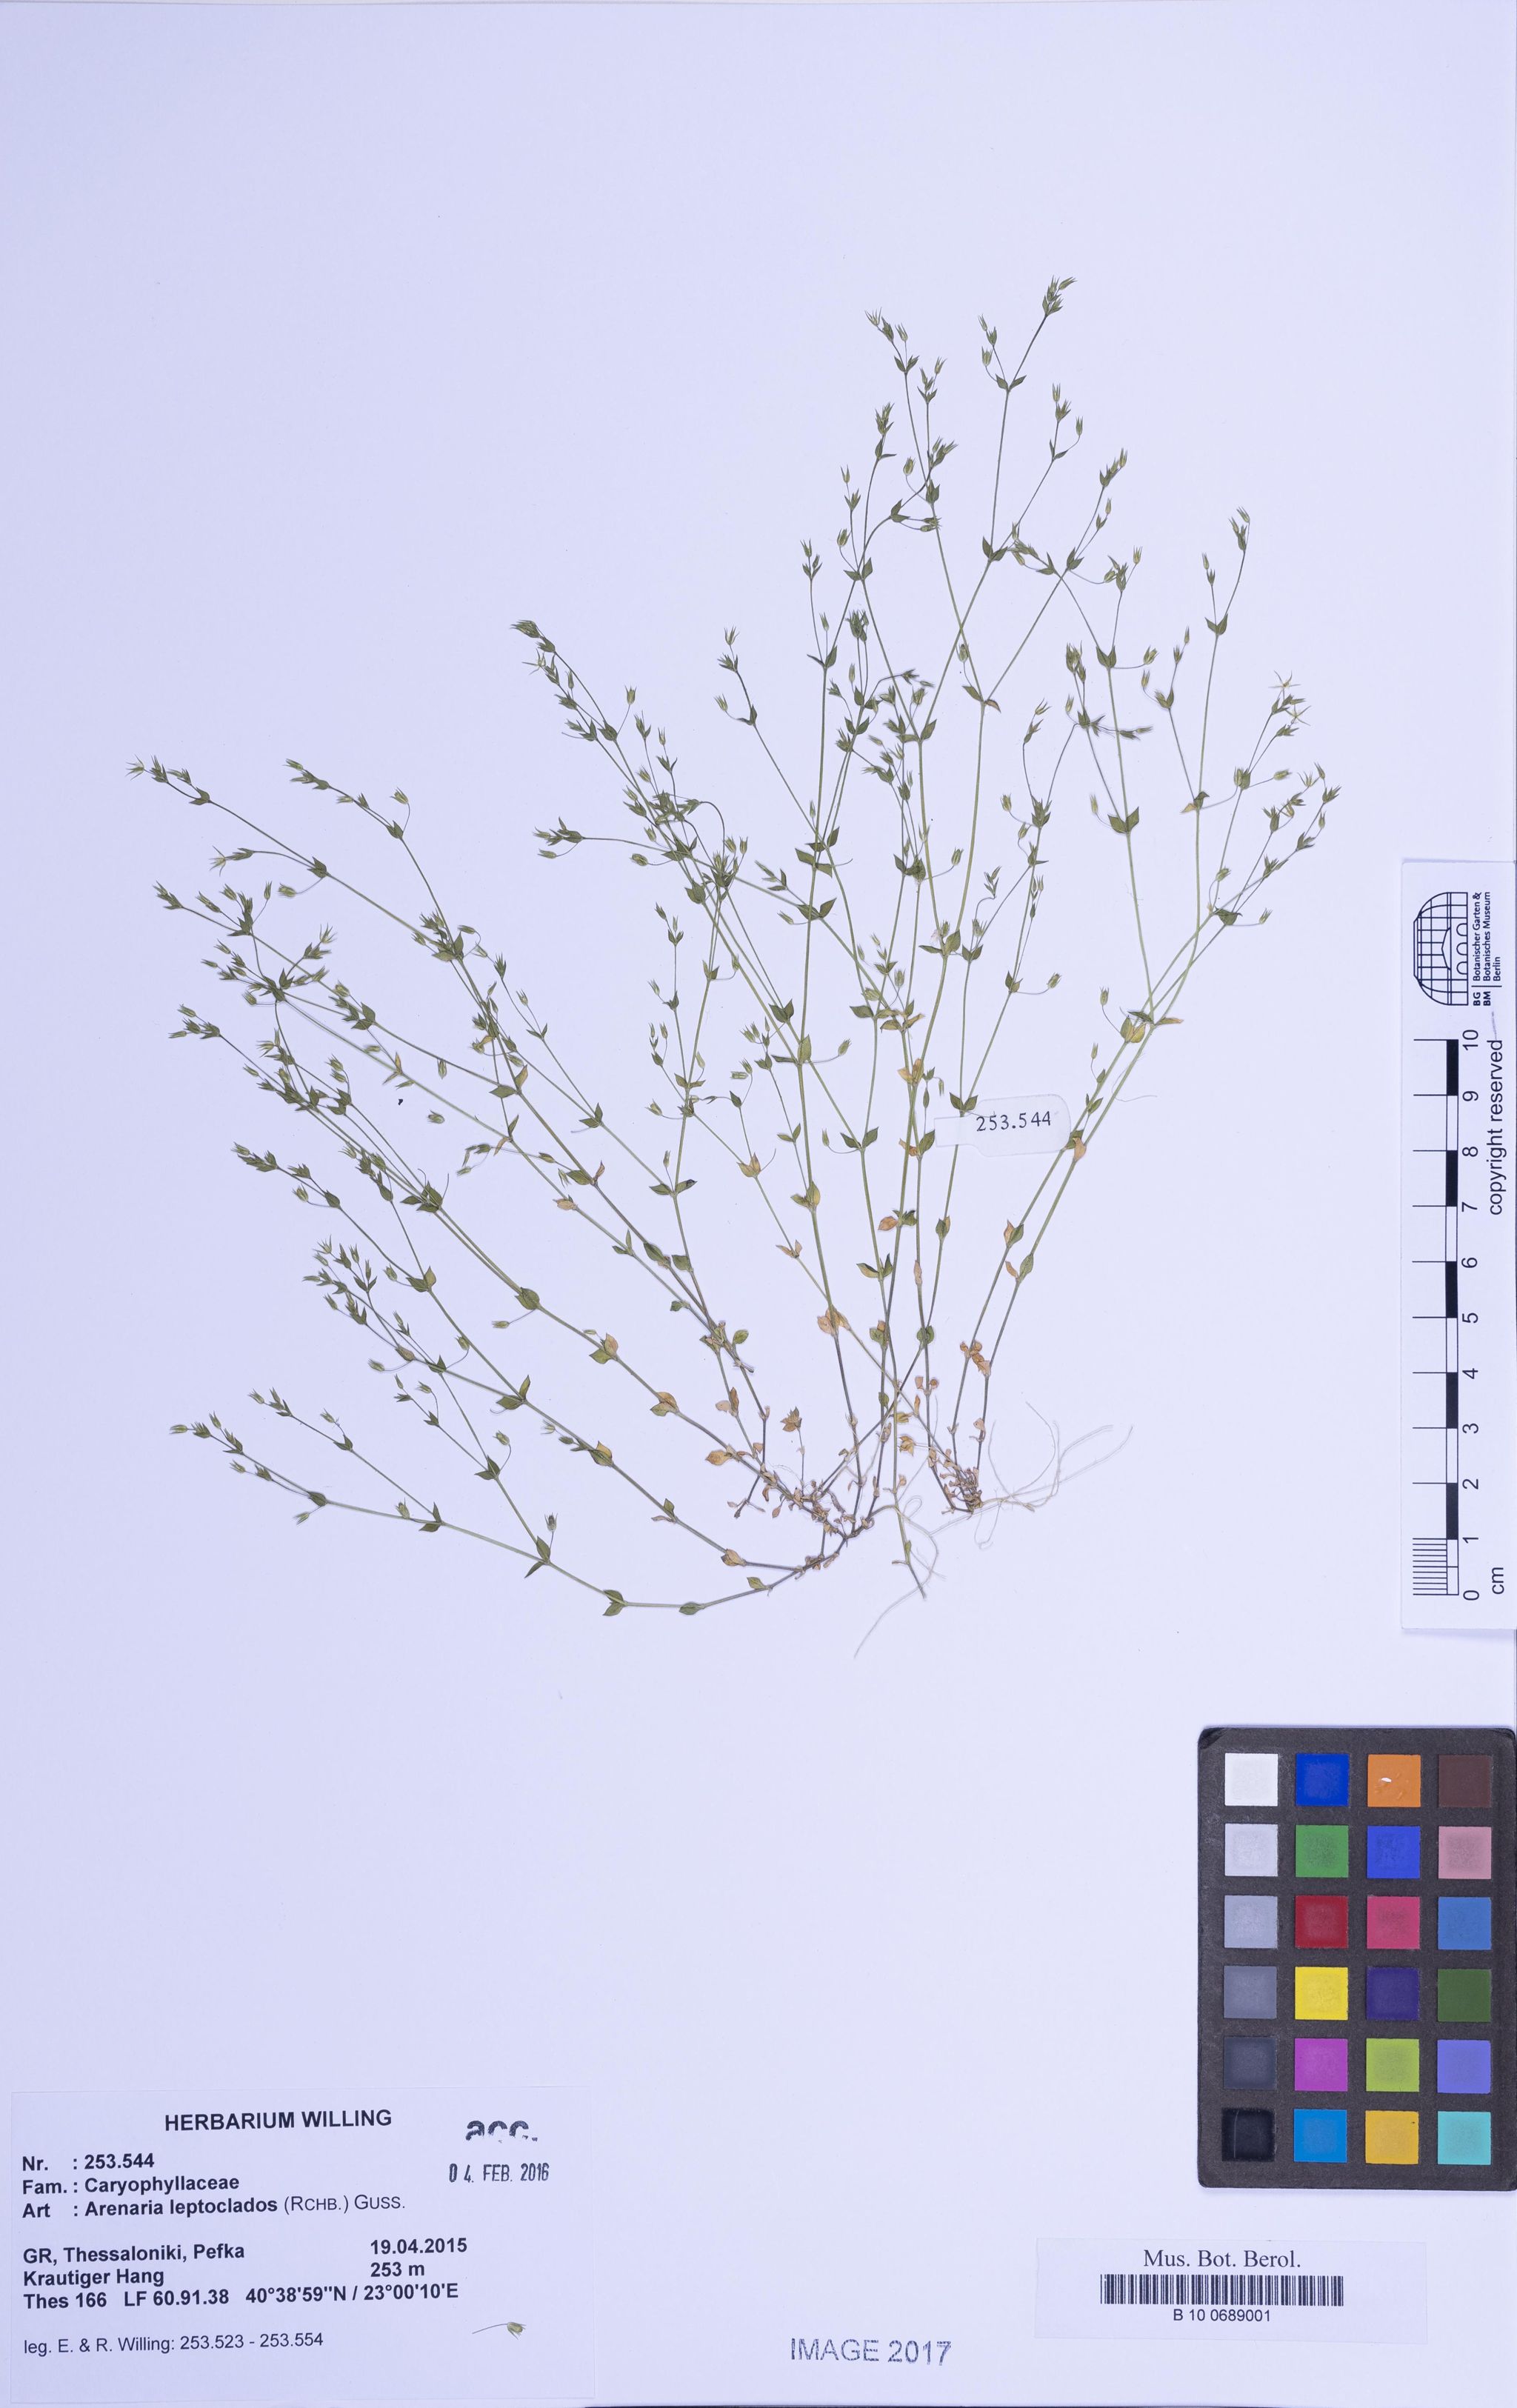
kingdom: Plantae
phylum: Tracheophyta
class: Magnoliopsida
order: Caryophyllales
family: Caryophyllaceae
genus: Arenaria
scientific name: Arenaria leptoclados
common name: Thyme-leaved sandwort
